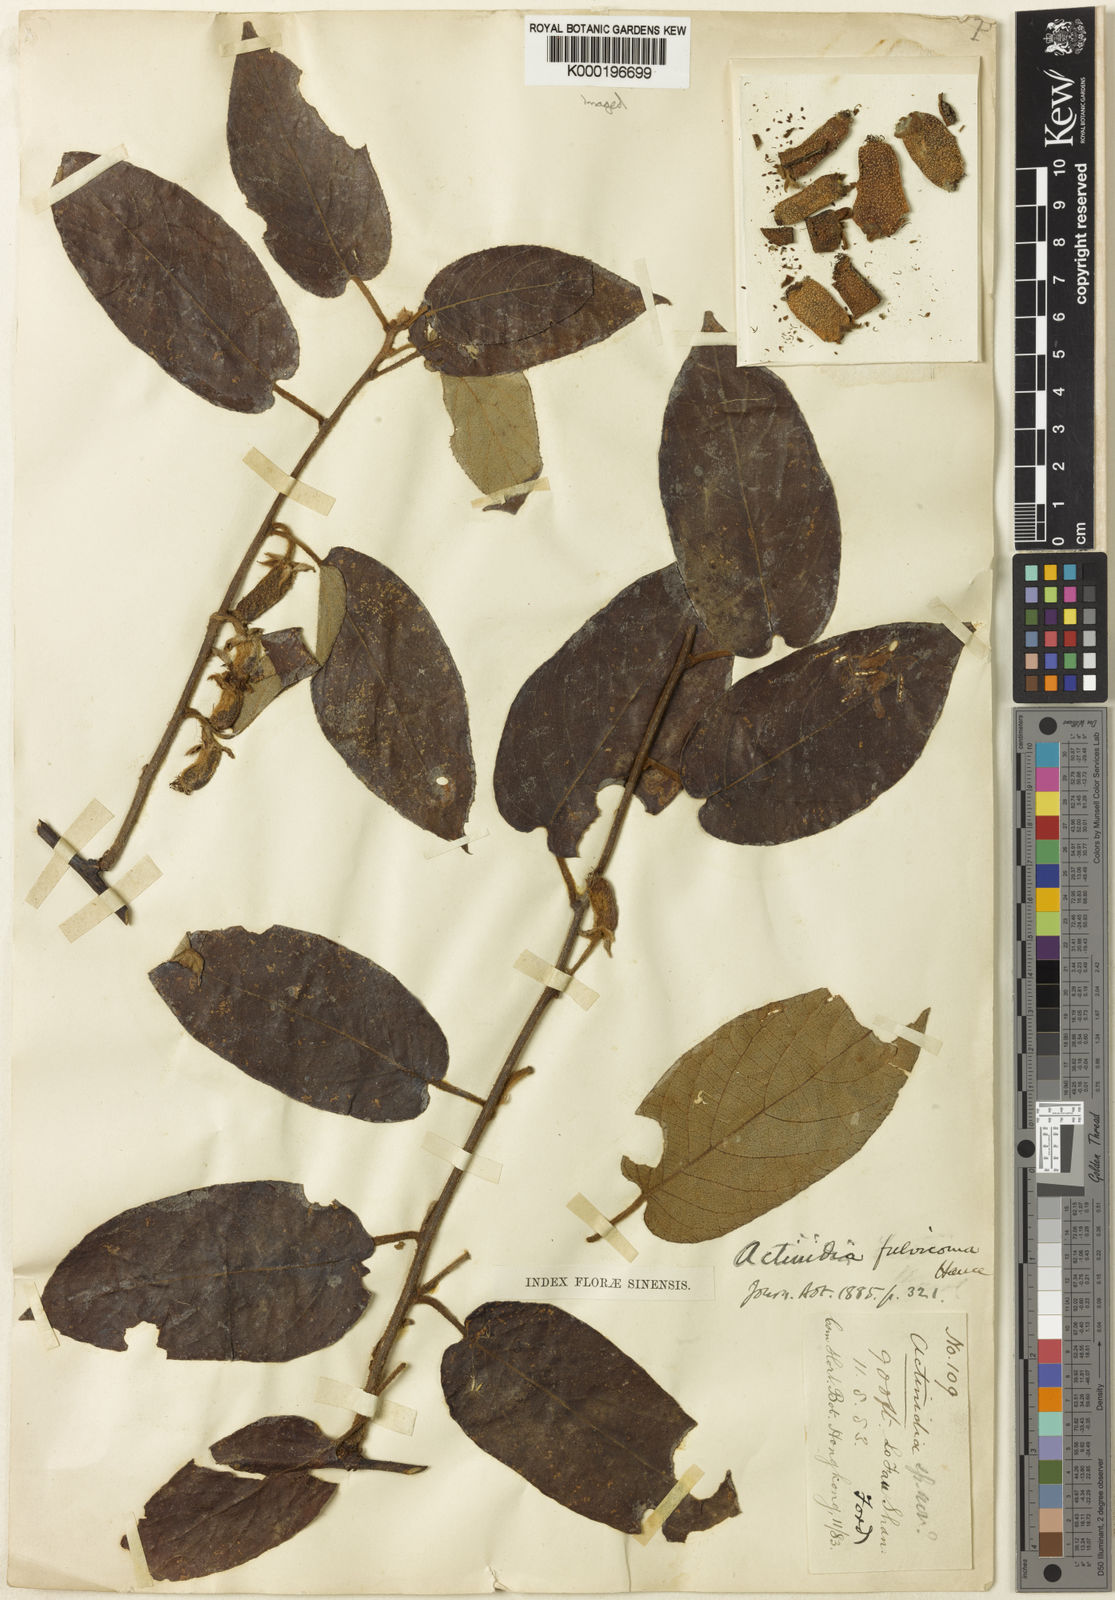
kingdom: Plantae
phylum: Tracheophyta
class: Magnoliopsida
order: Ericales
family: Actinidiaceae
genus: Actinidia
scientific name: Actinidia fulvicoma
